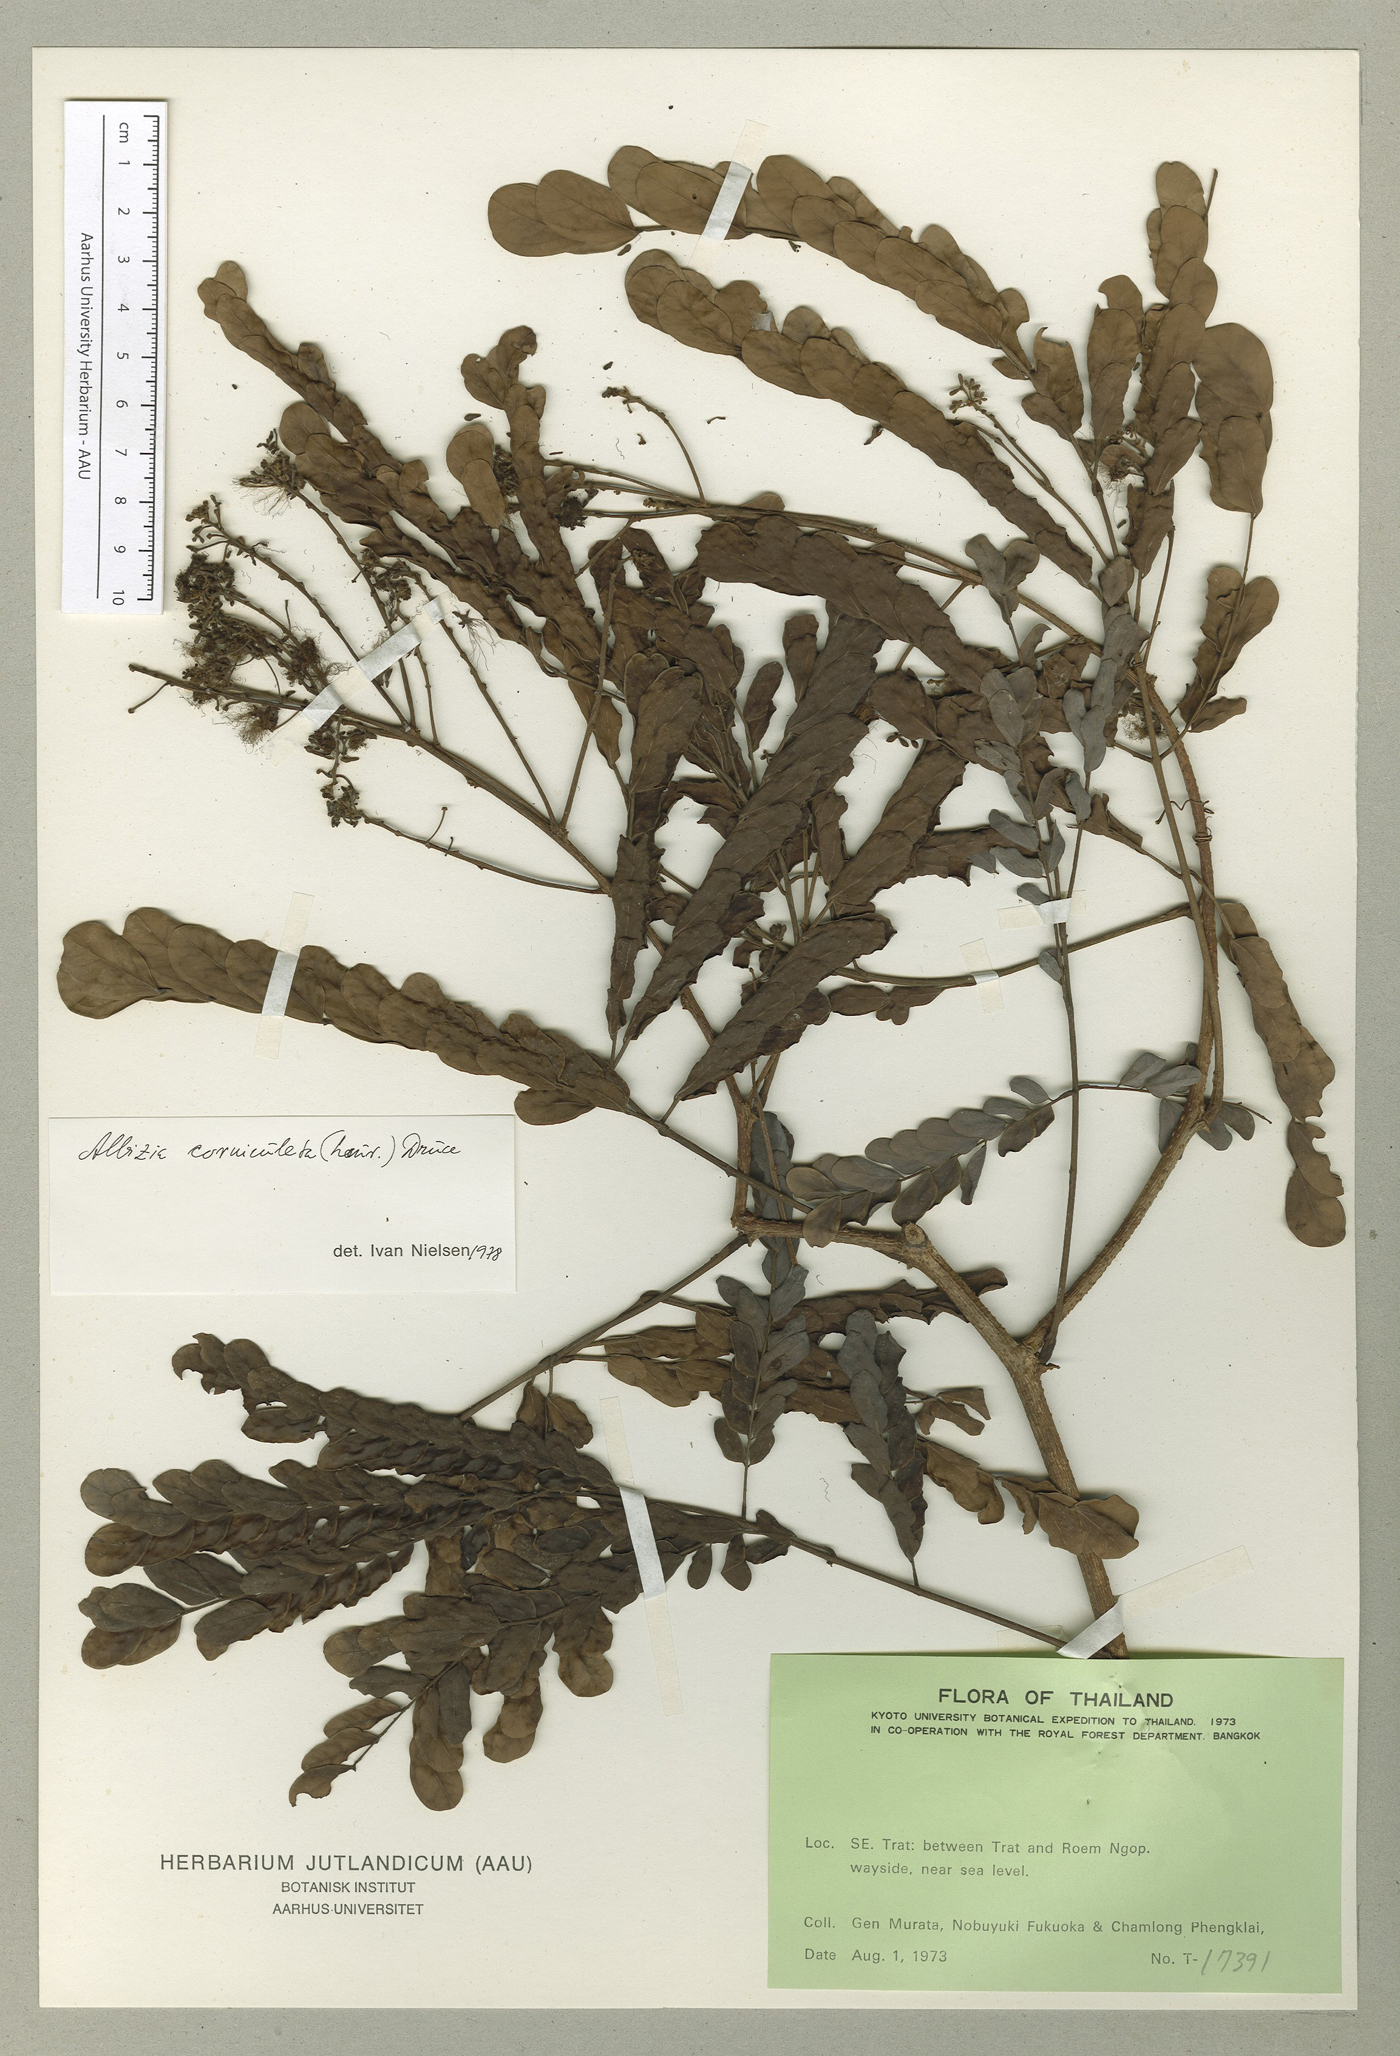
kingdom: Plantae
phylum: Tracheophyta
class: Magnoliopsida
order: Fabales
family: Fabaceae
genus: Albizia
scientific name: Albizia corniculata
